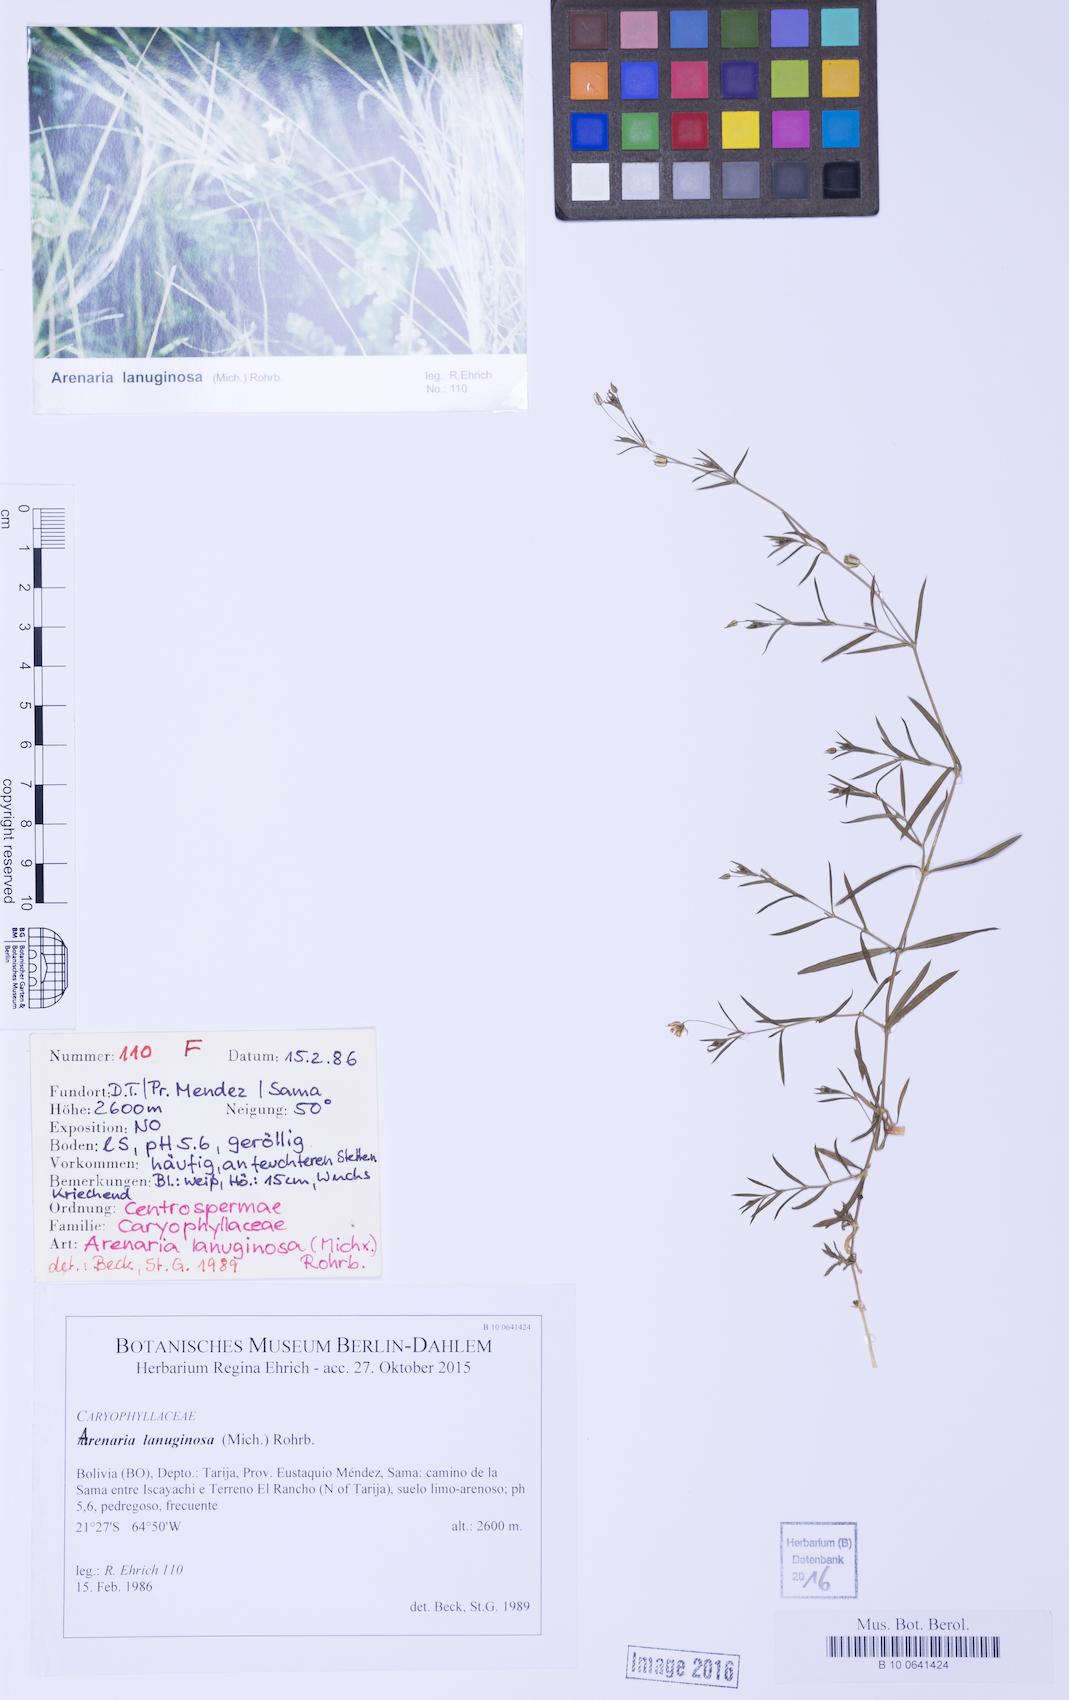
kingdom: Plantae
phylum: Tracheophyta
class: Magnoliopsida
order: Caryophyllales
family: Caryophyllaceae
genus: Arenaria
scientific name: Arenaria lanuginosa
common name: Spread sandwort
